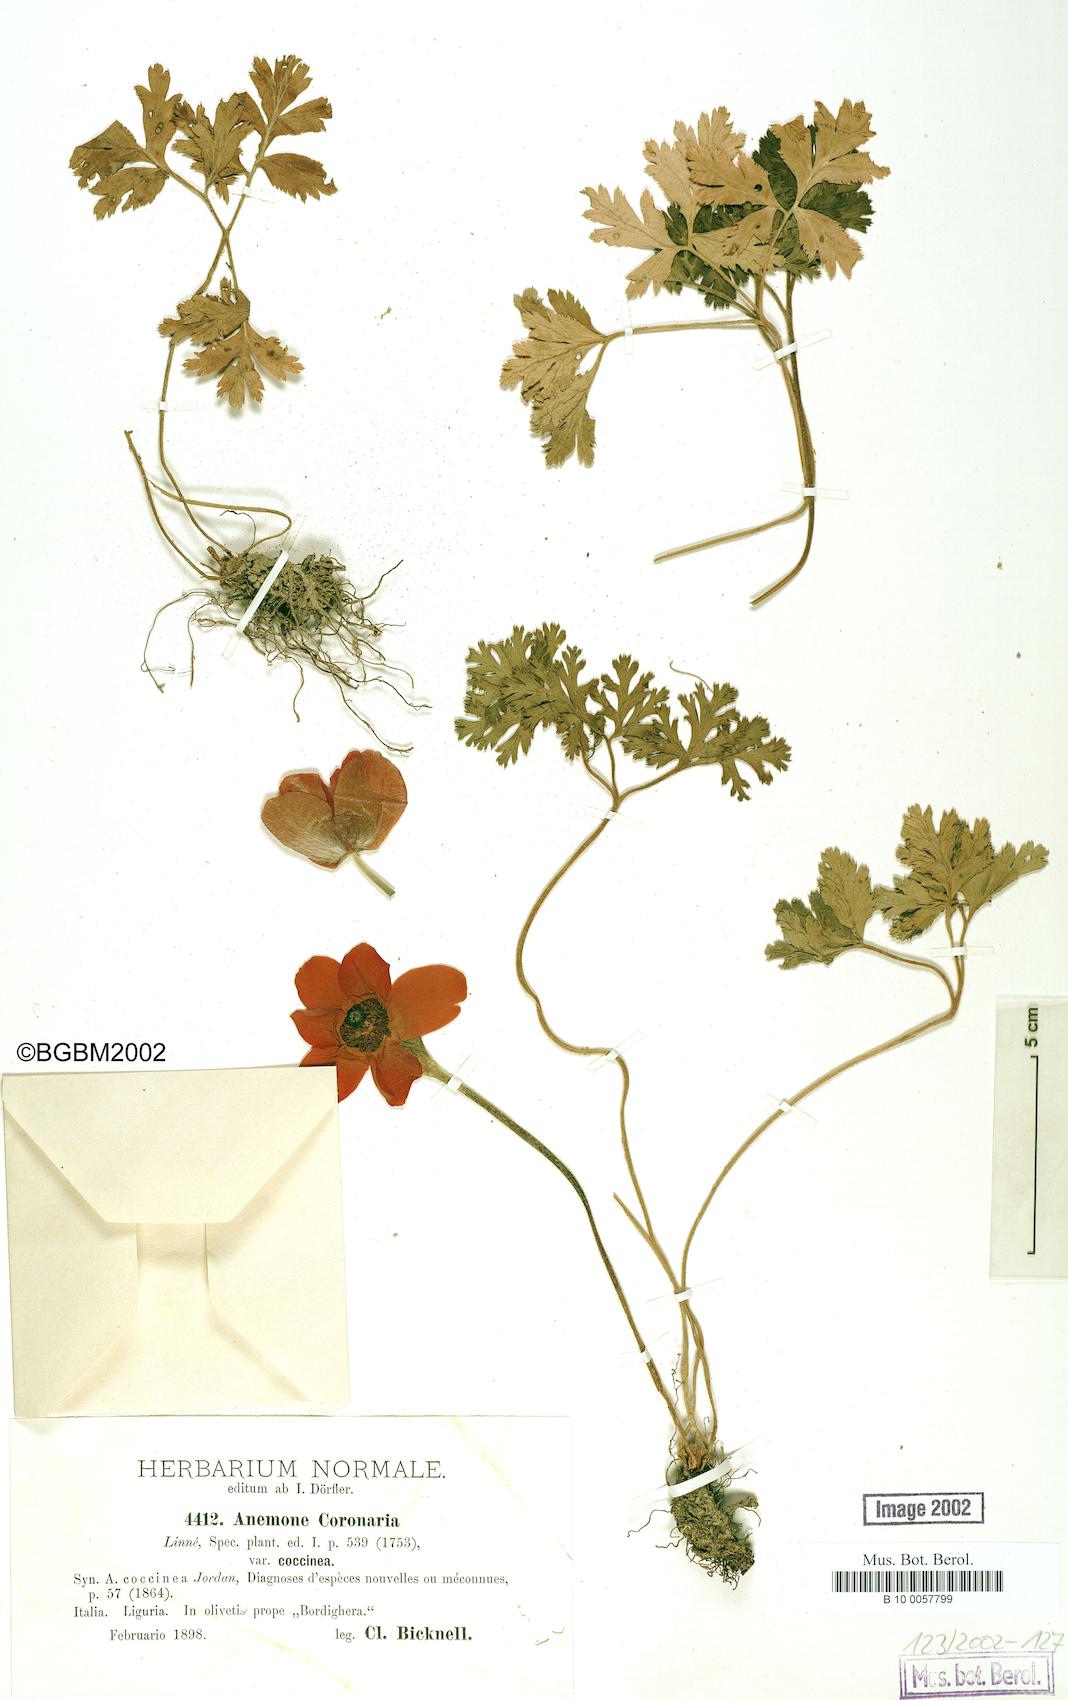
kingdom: Plantae
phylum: Tracheophyta
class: Magnoliopsida
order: Ranunculales
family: Ranunculaceae
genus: Anemone
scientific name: Anemone coronaria
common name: Poppy anemone
